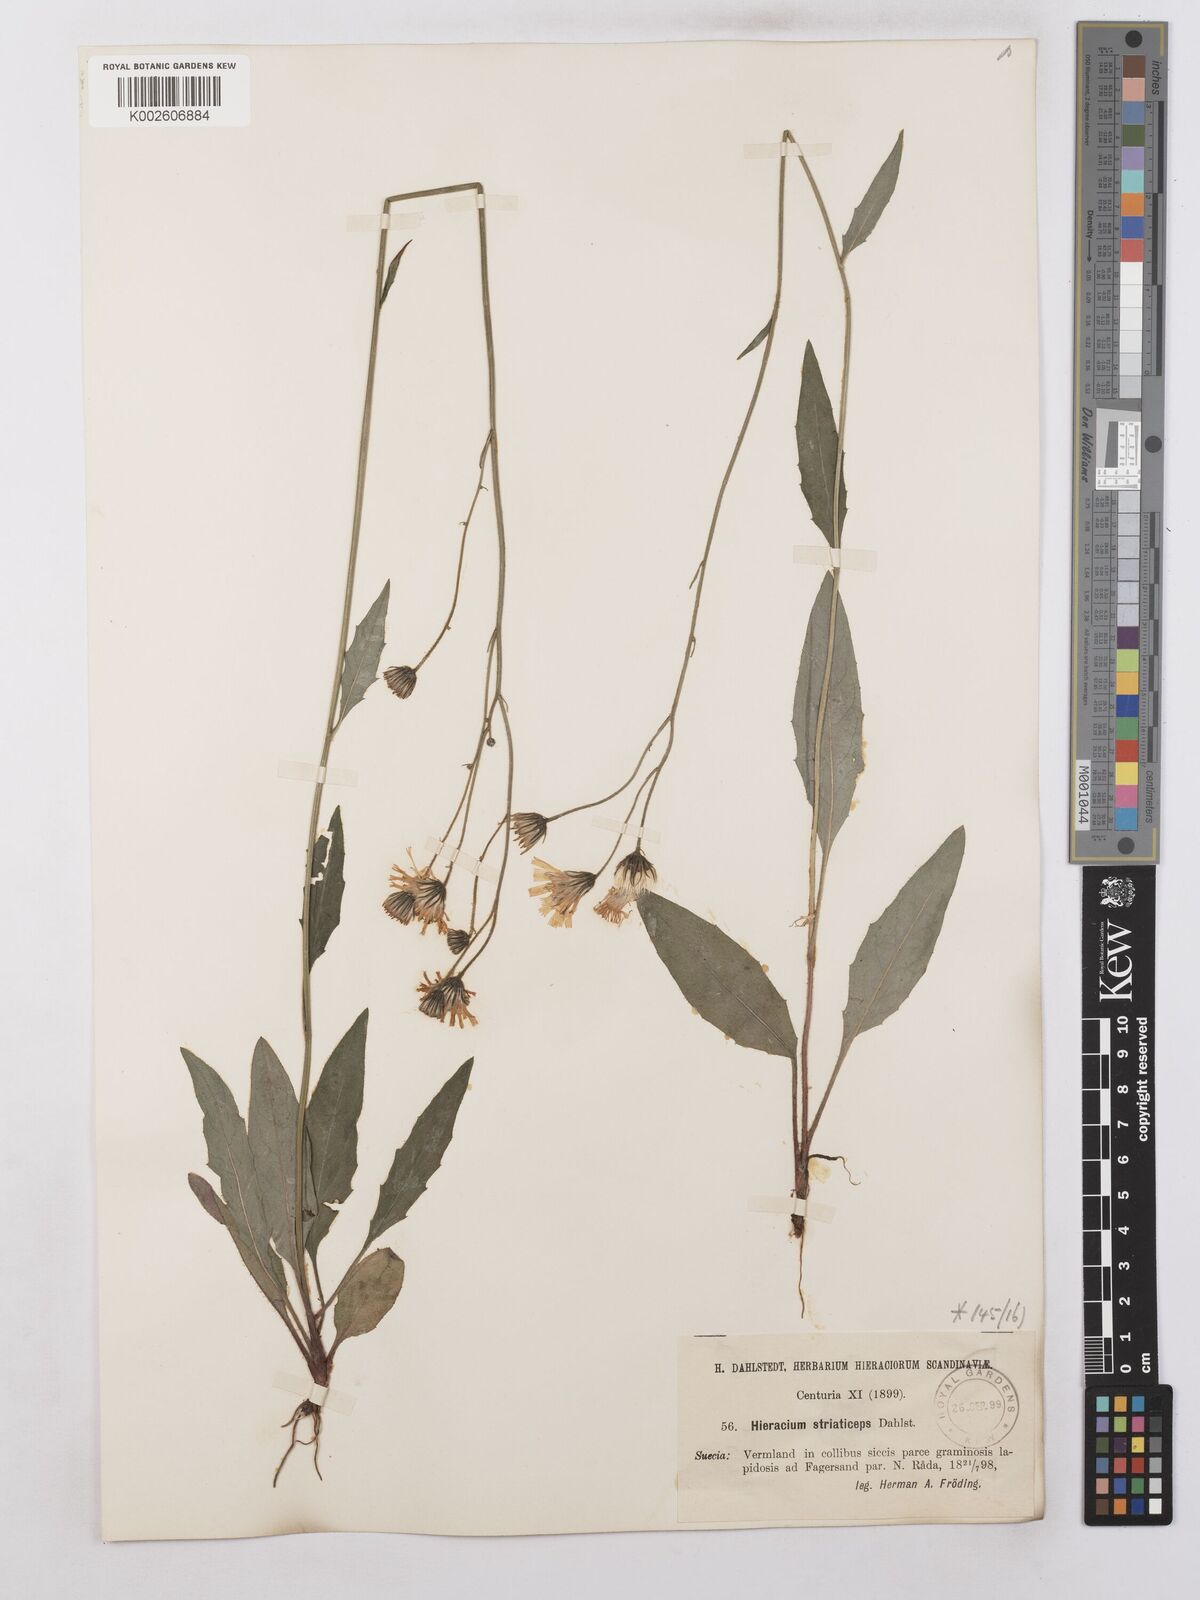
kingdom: Plantae
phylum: Tracheophyta
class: Magnoliopsida
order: Asterales
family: Asteraceae
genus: Hieracium
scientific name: Hieracium levicaule
